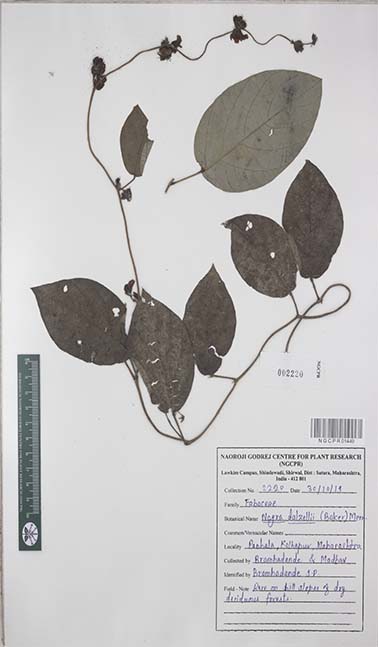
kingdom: Plantae
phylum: Tracheophyta
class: Magnoliopsida
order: Fabales
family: Fabaceae
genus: Nogra
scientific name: Nogra dalzellii
